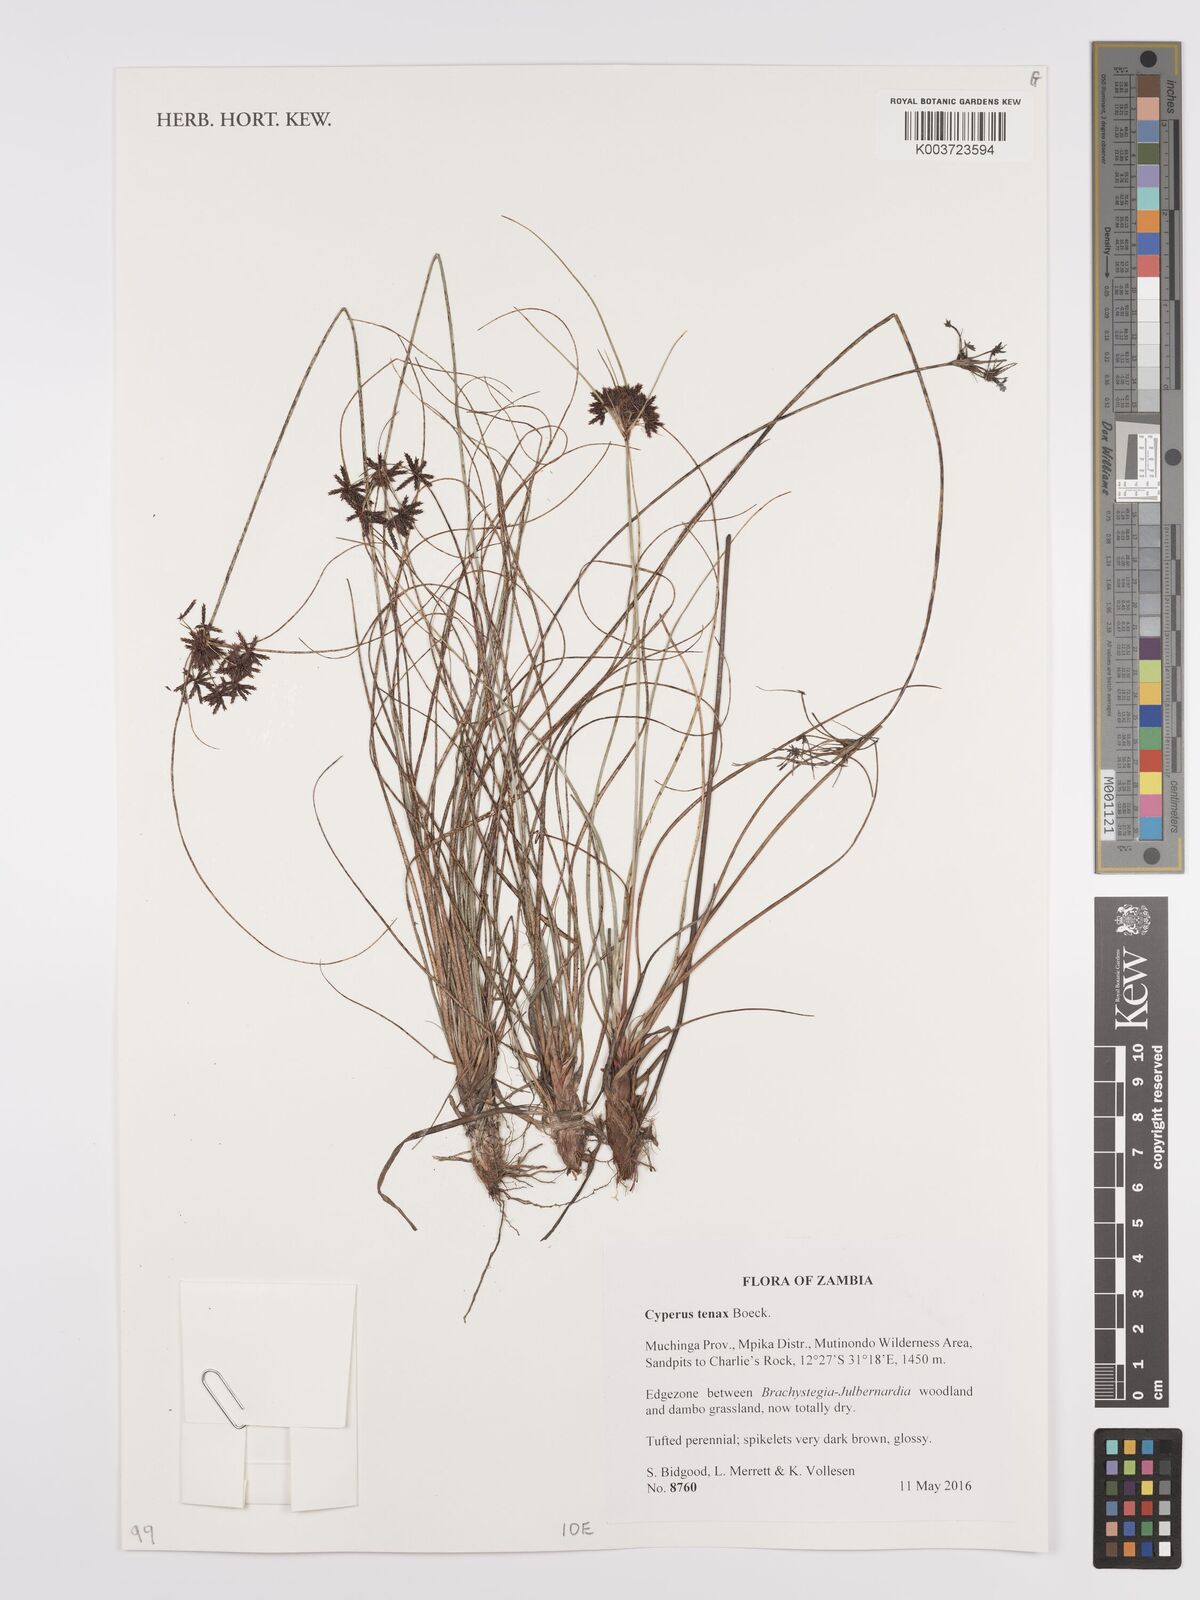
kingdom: Plantae
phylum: Tracheophyta
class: Liliopsida
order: Poales
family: Cyperaceae
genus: Cyperus
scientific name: Cyperus tenax
